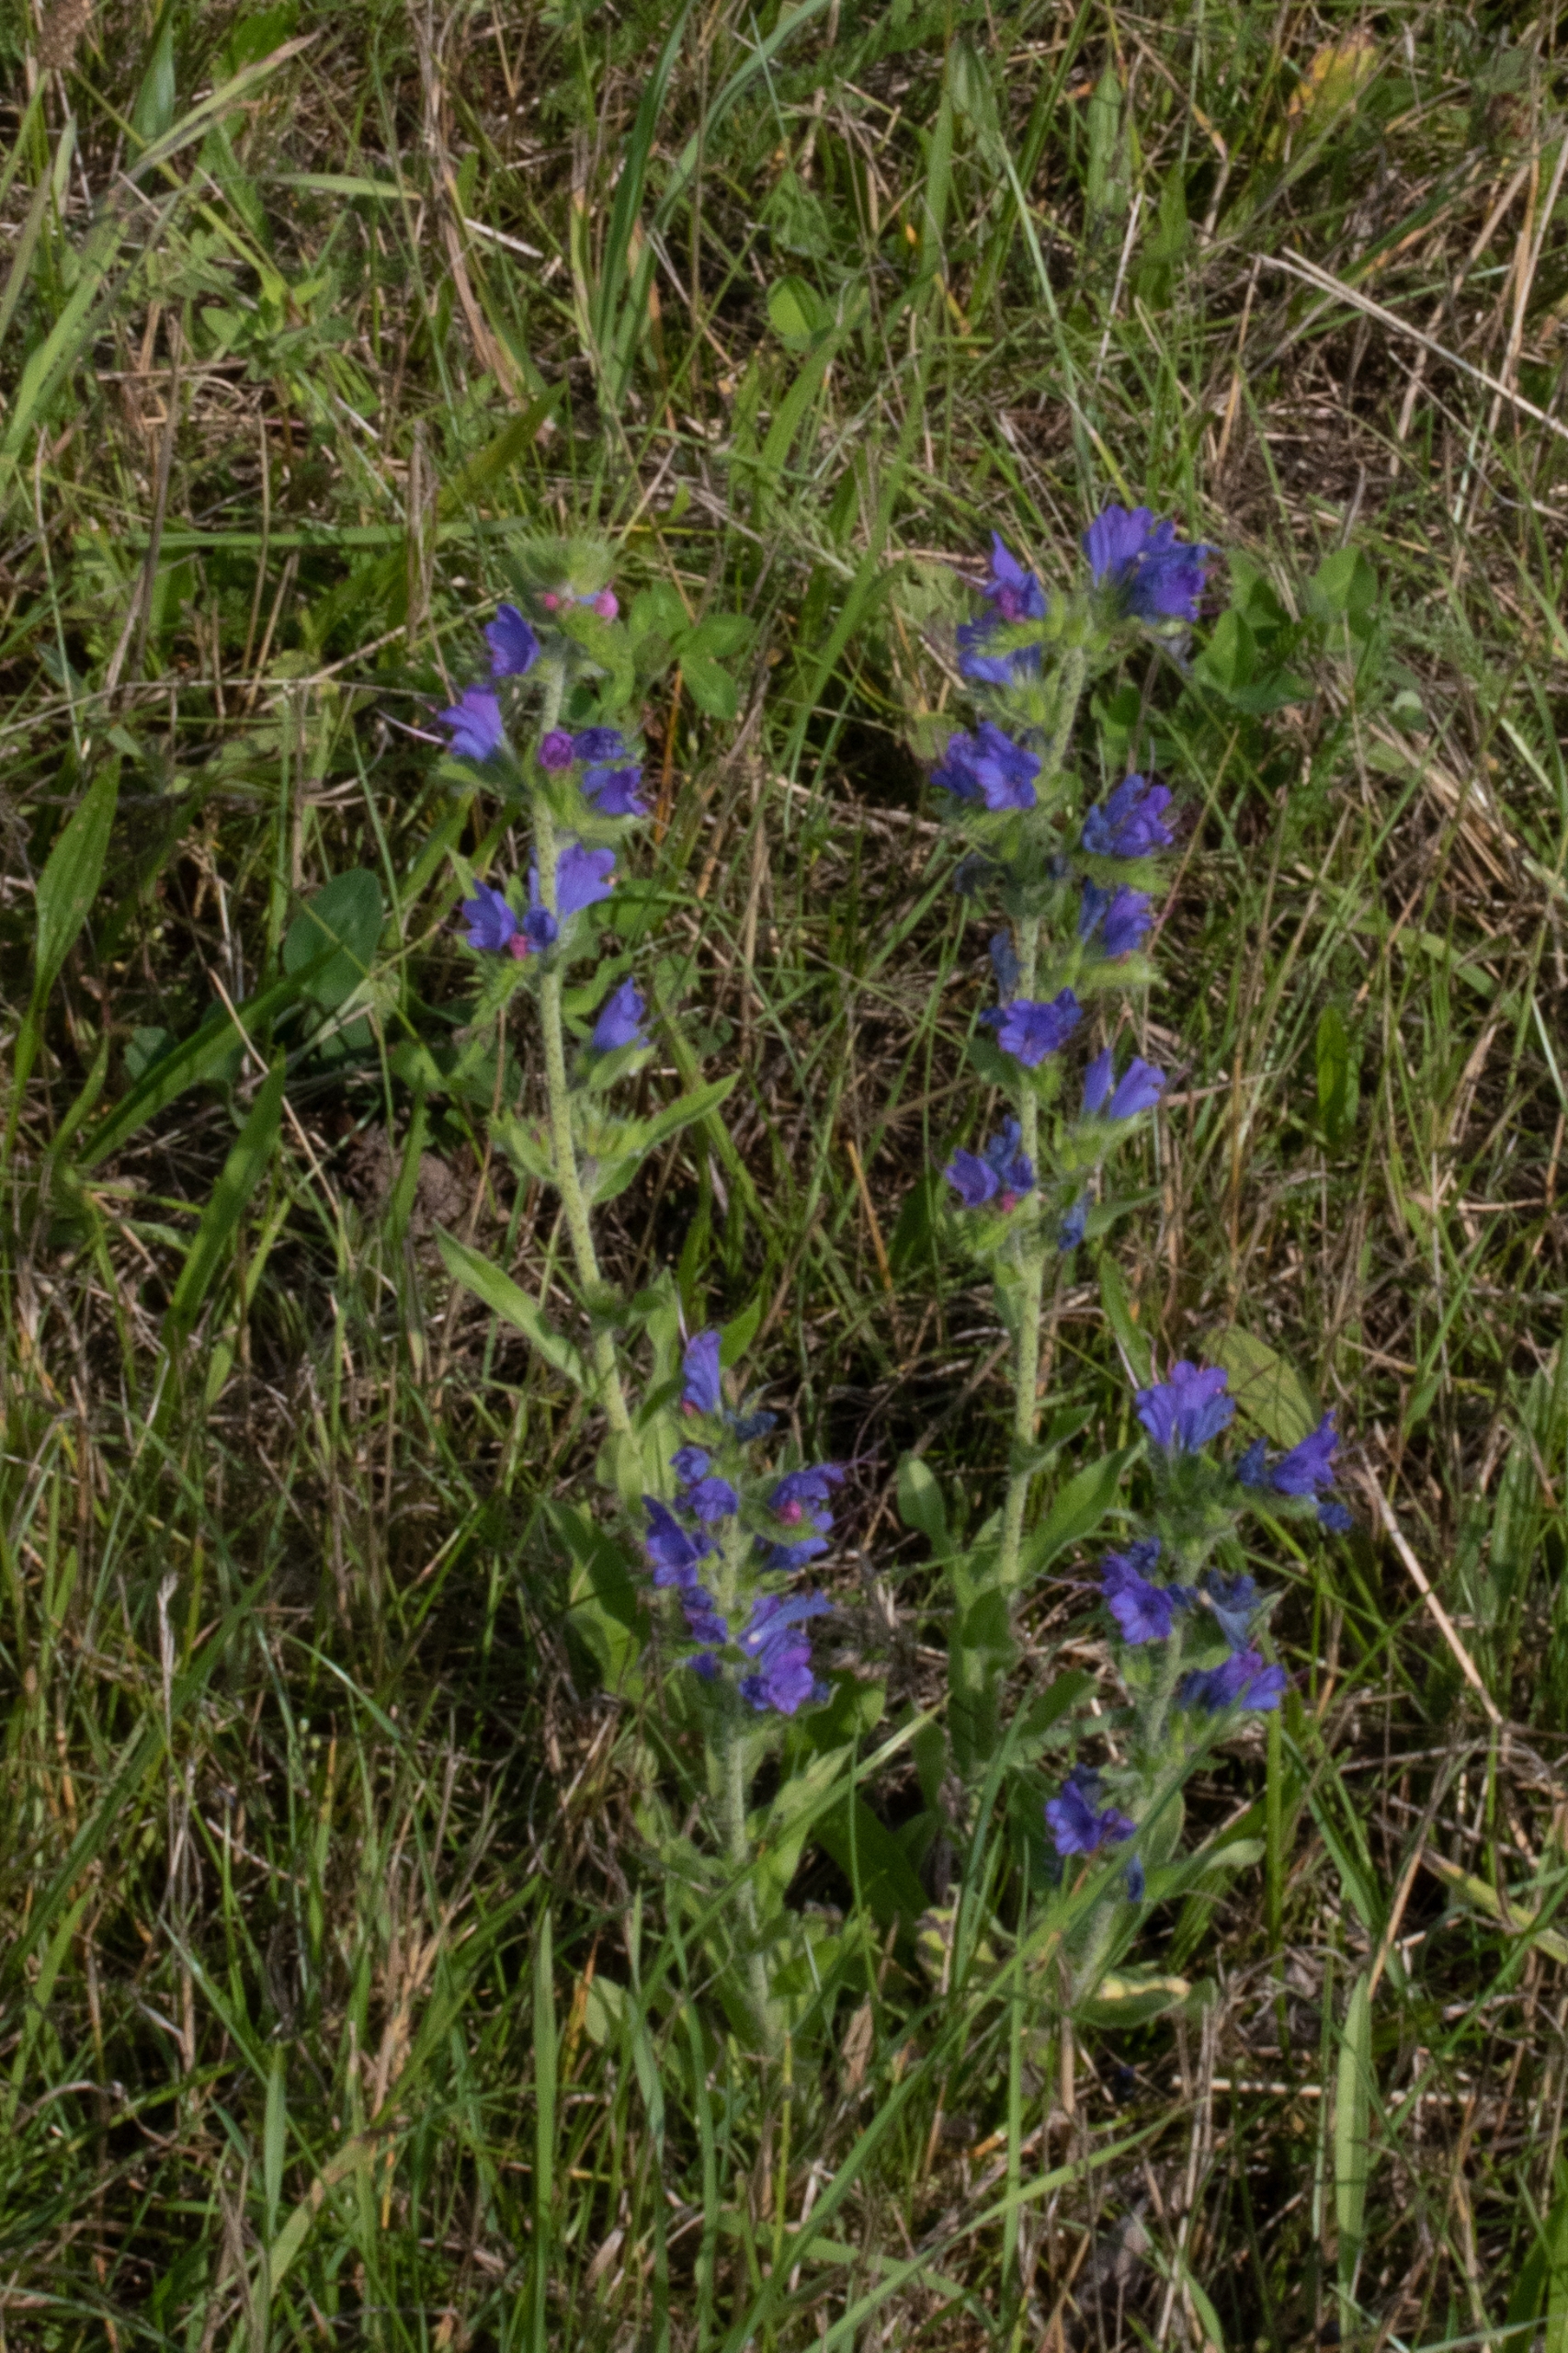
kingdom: Plantae
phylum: Tracheophyta
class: Magnoliopsida
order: Boraginales
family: Boraginaceae
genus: Echium
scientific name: Echium vulgare
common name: Slangehoved
